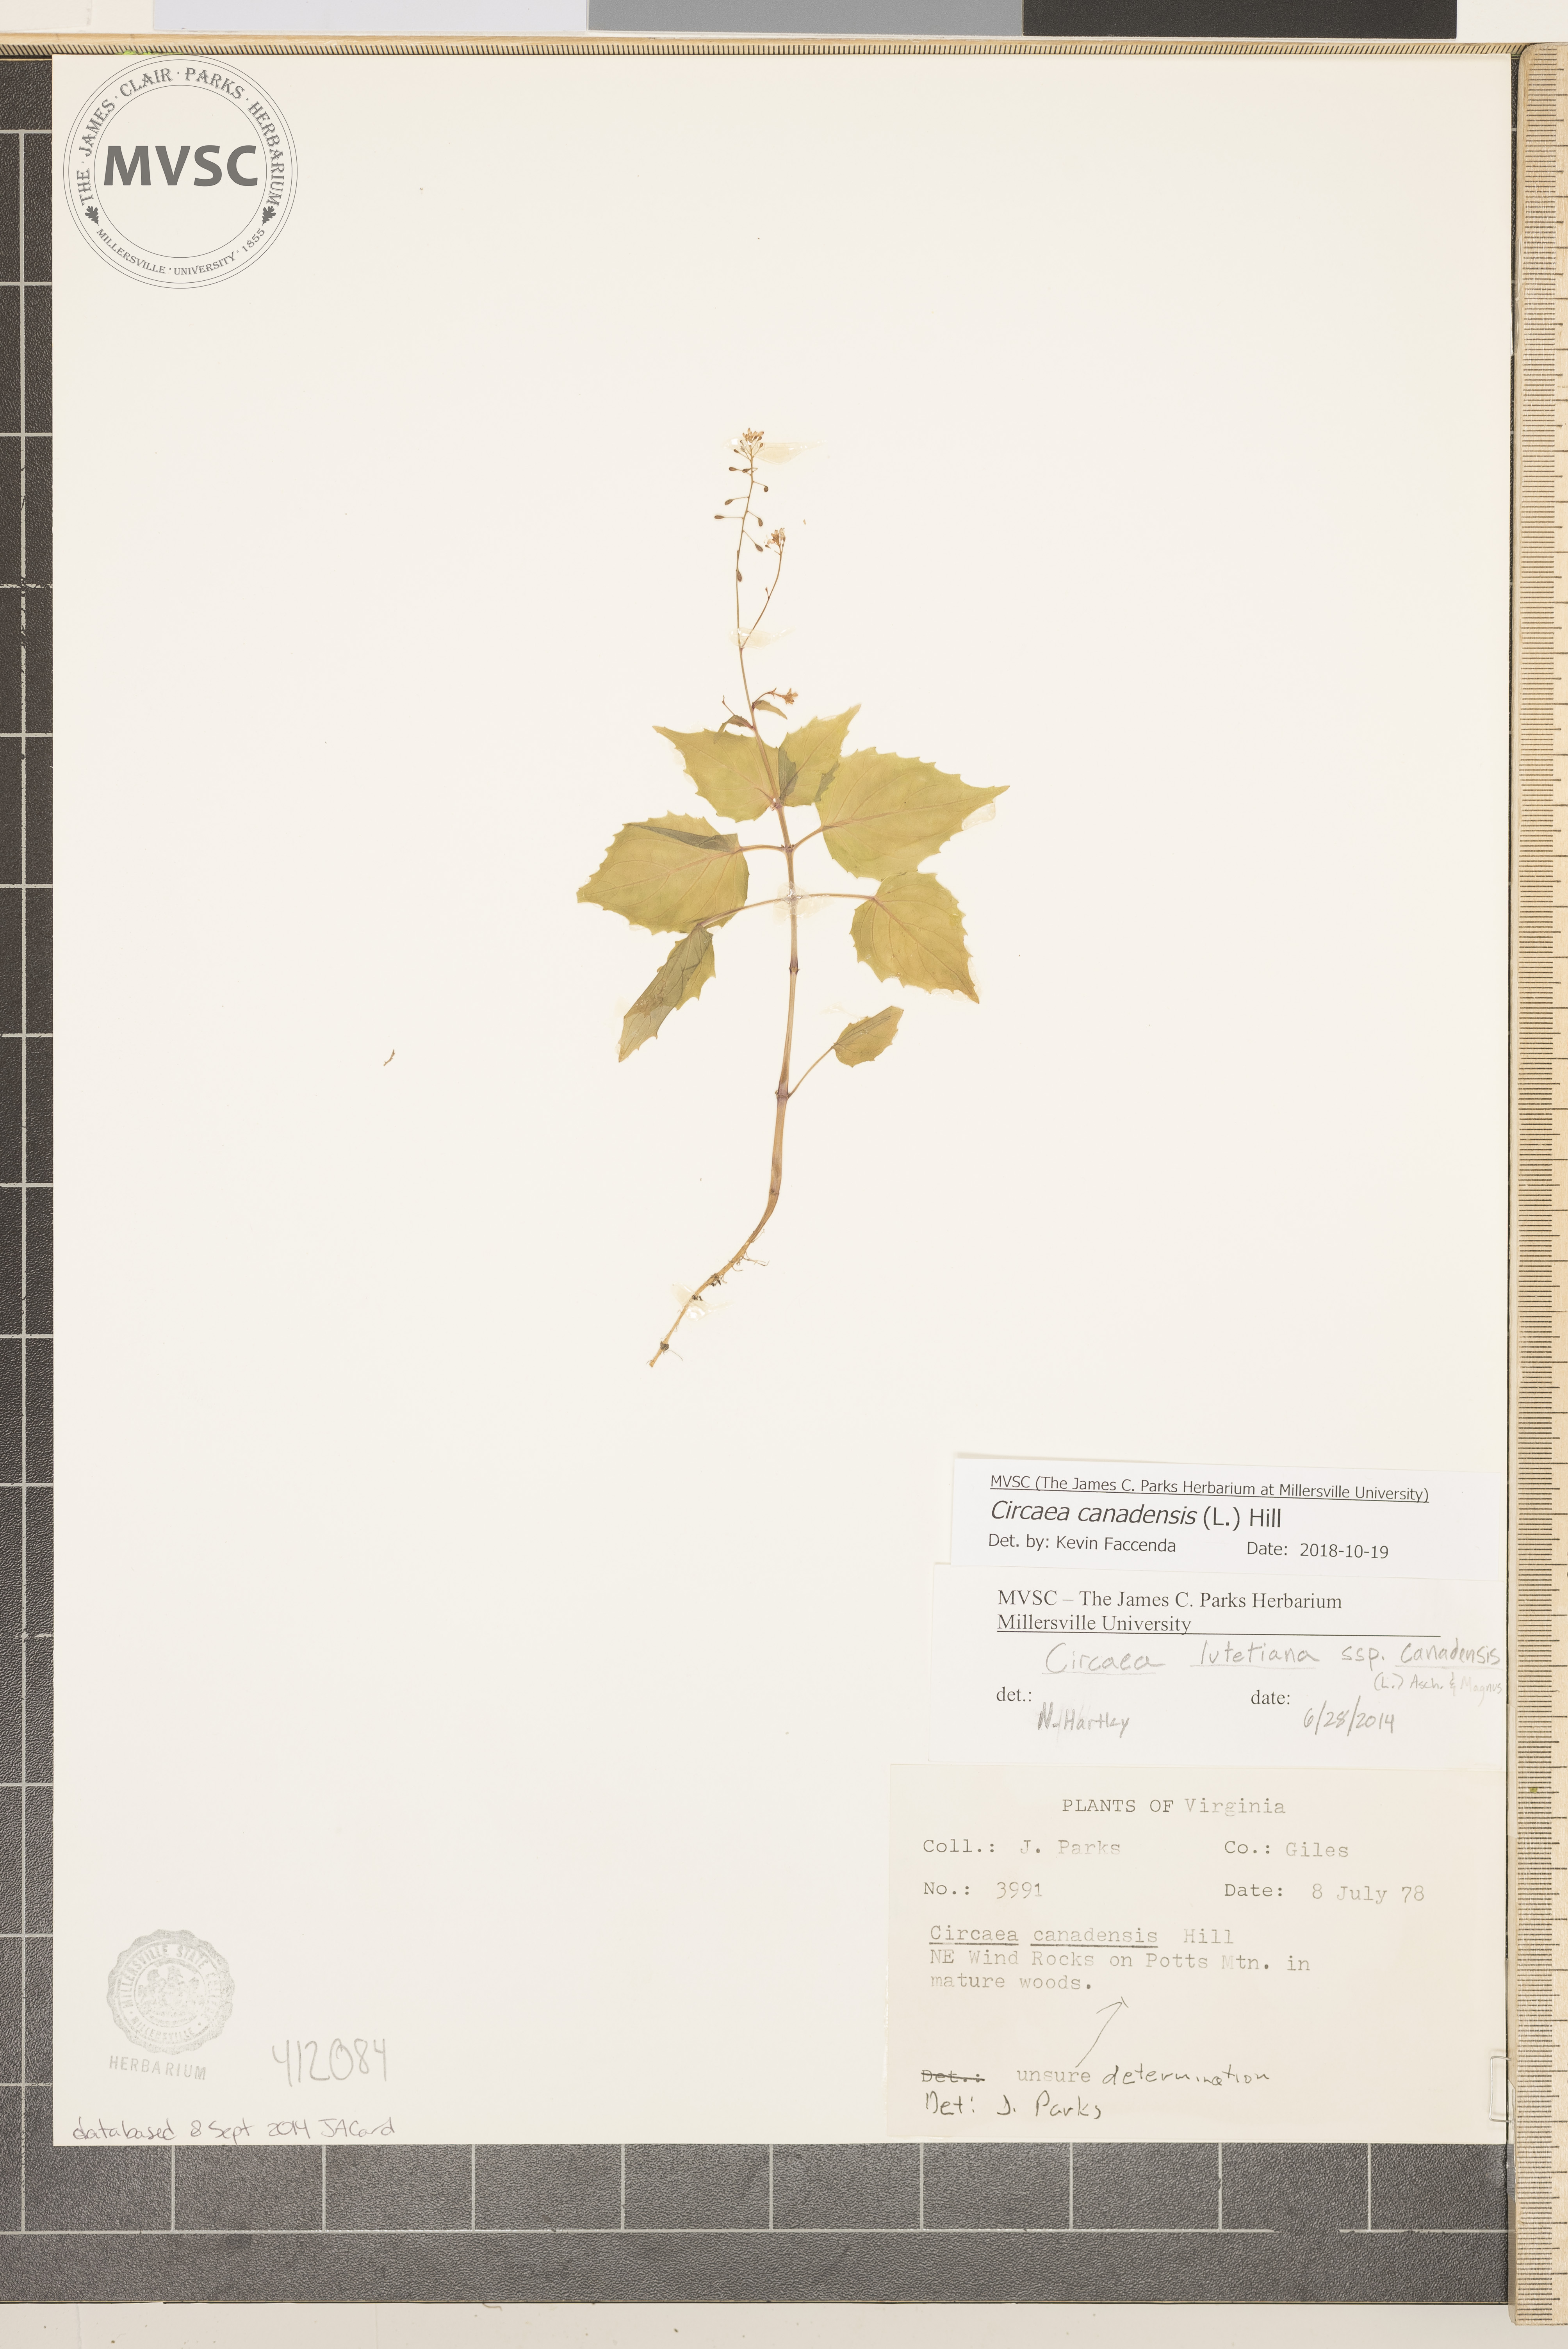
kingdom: Plantae
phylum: Tracheophyta
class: Magnoliopsida
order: Myrtales
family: Onagraceae
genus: Circaea
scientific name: Circaea canadensis
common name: Broad-leaved enchanter's nightshade
